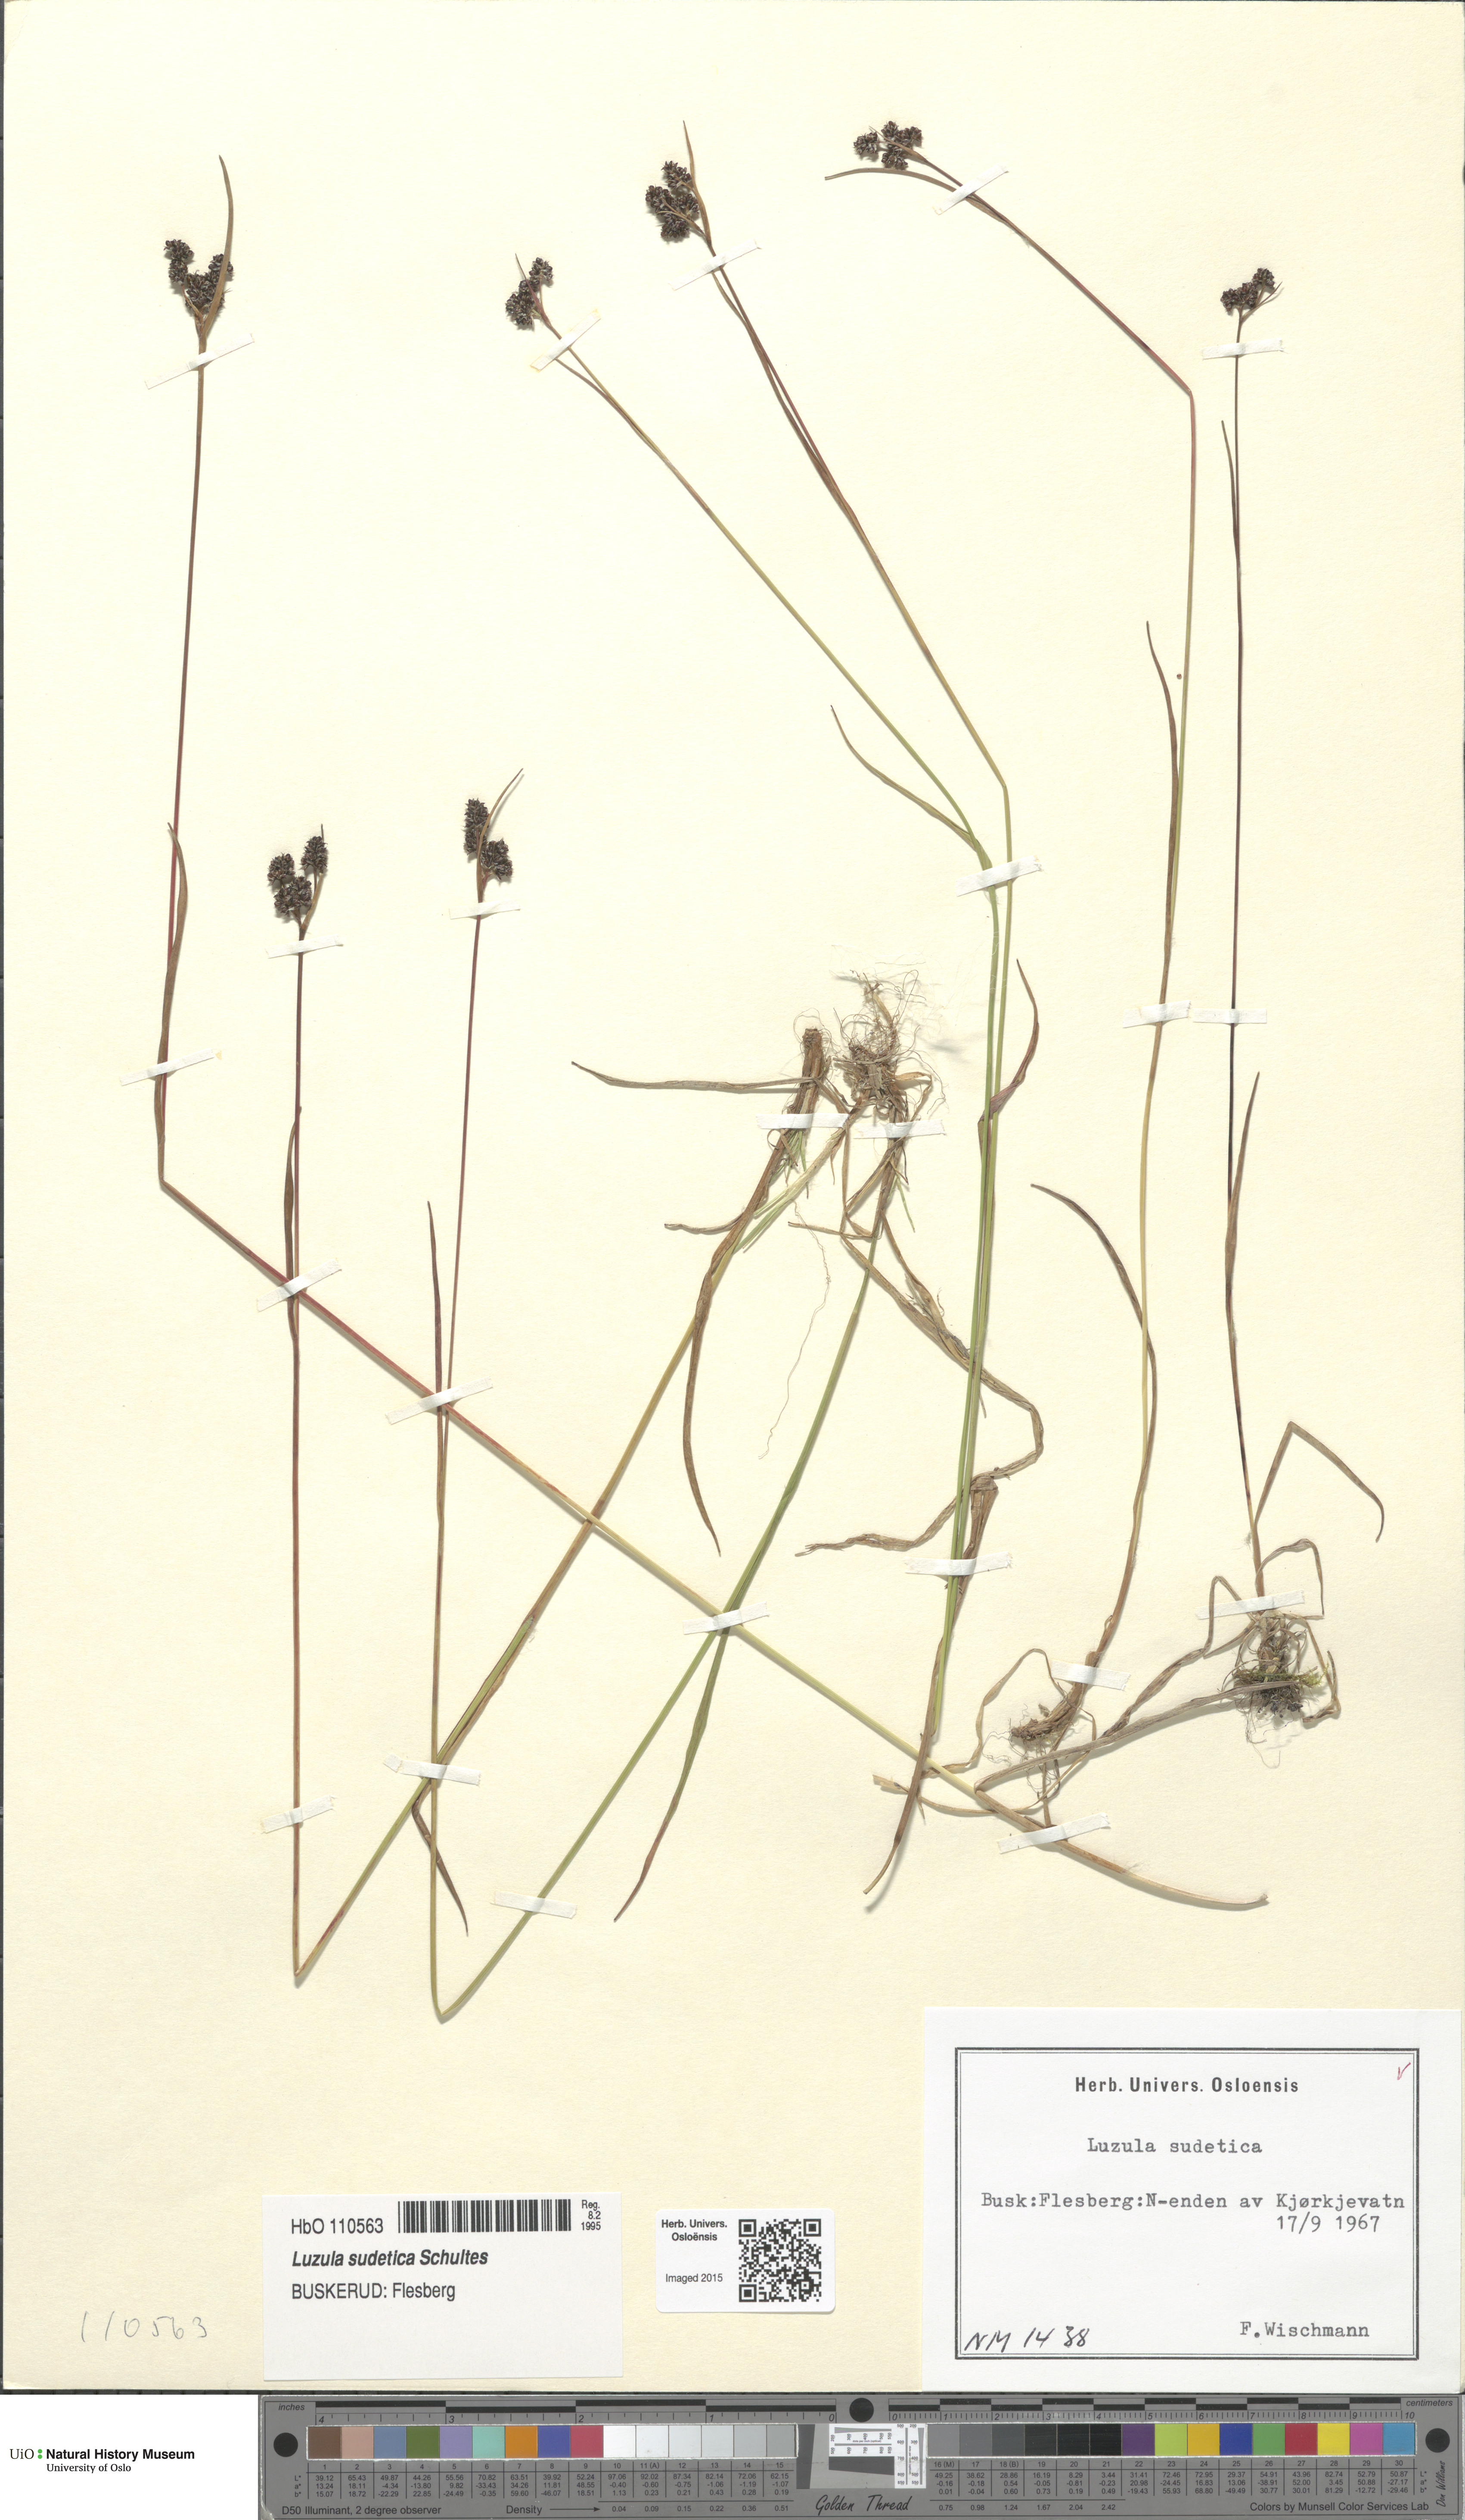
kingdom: Plantae
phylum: Tracheophyta
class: Liliopsida
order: Poales
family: Juncaceae
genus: Luzula
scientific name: Luzula sudetica
